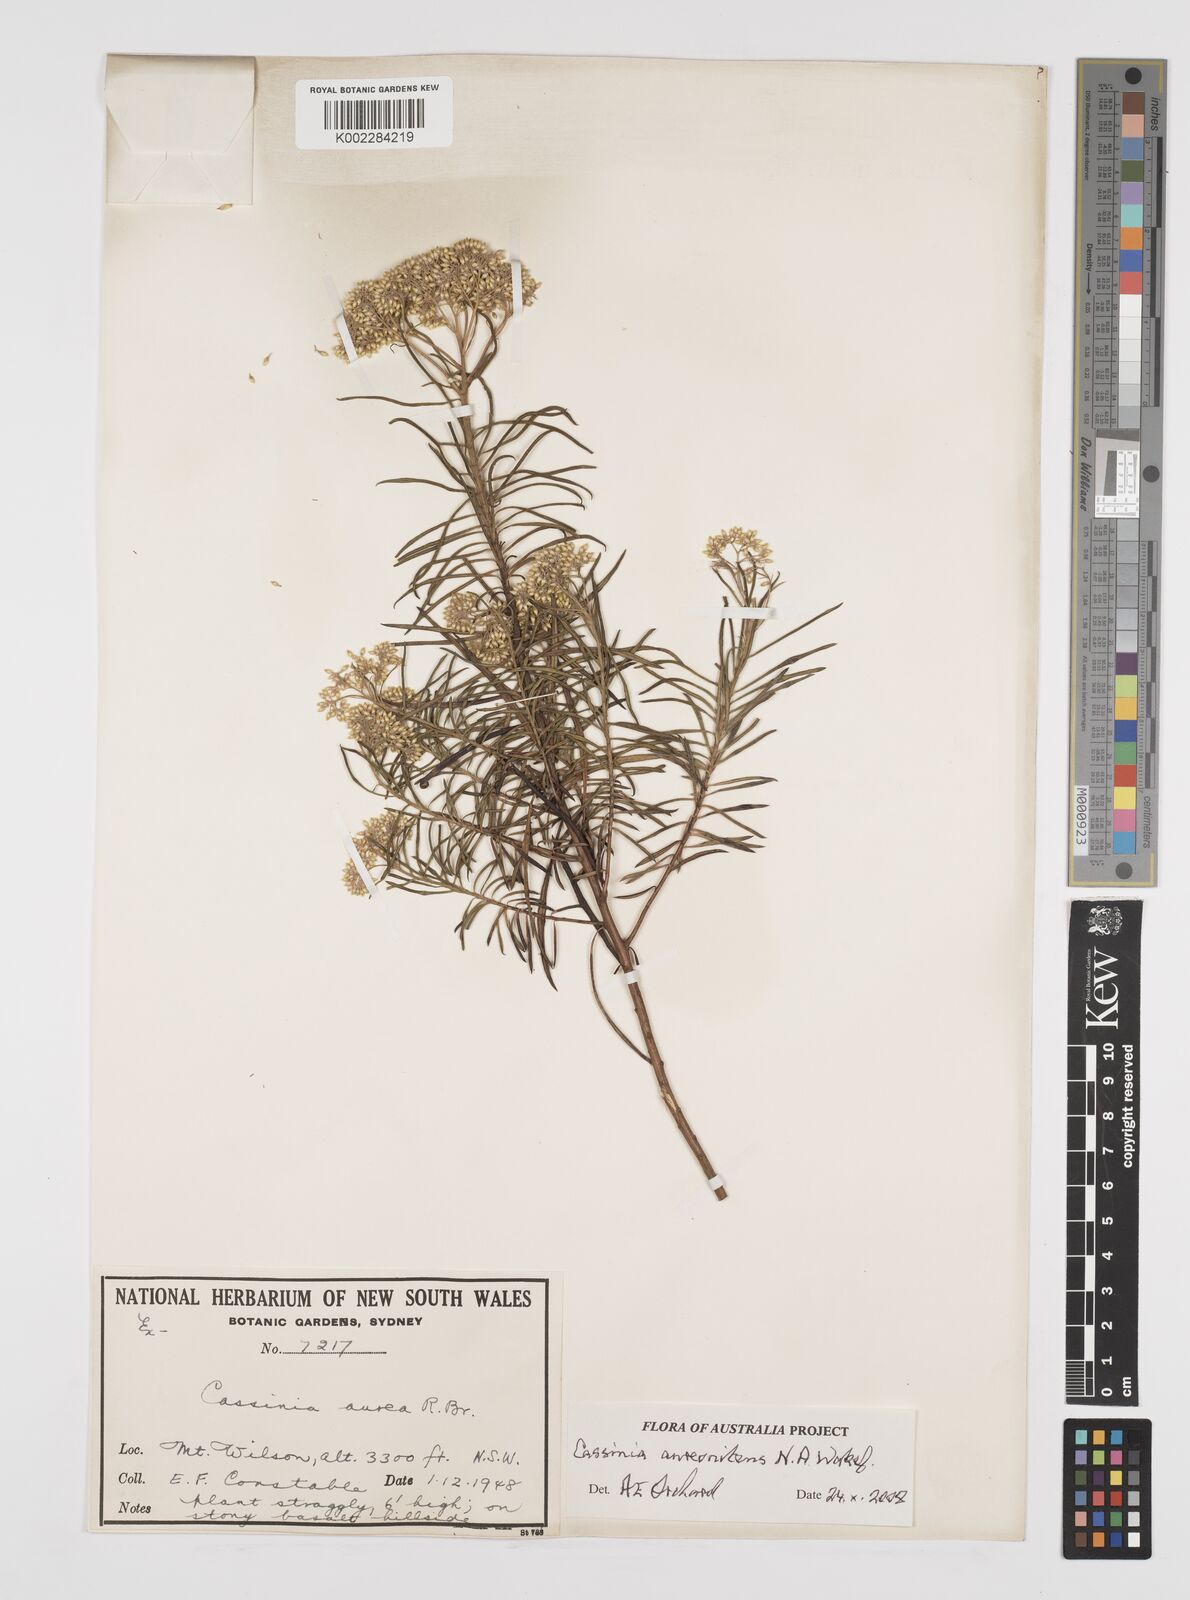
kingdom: Plantae
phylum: Tracheophyta
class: Magnoliopsida
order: Asterales
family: Asteraceae
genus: Cassinia
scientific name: Cassinia aureonitens
